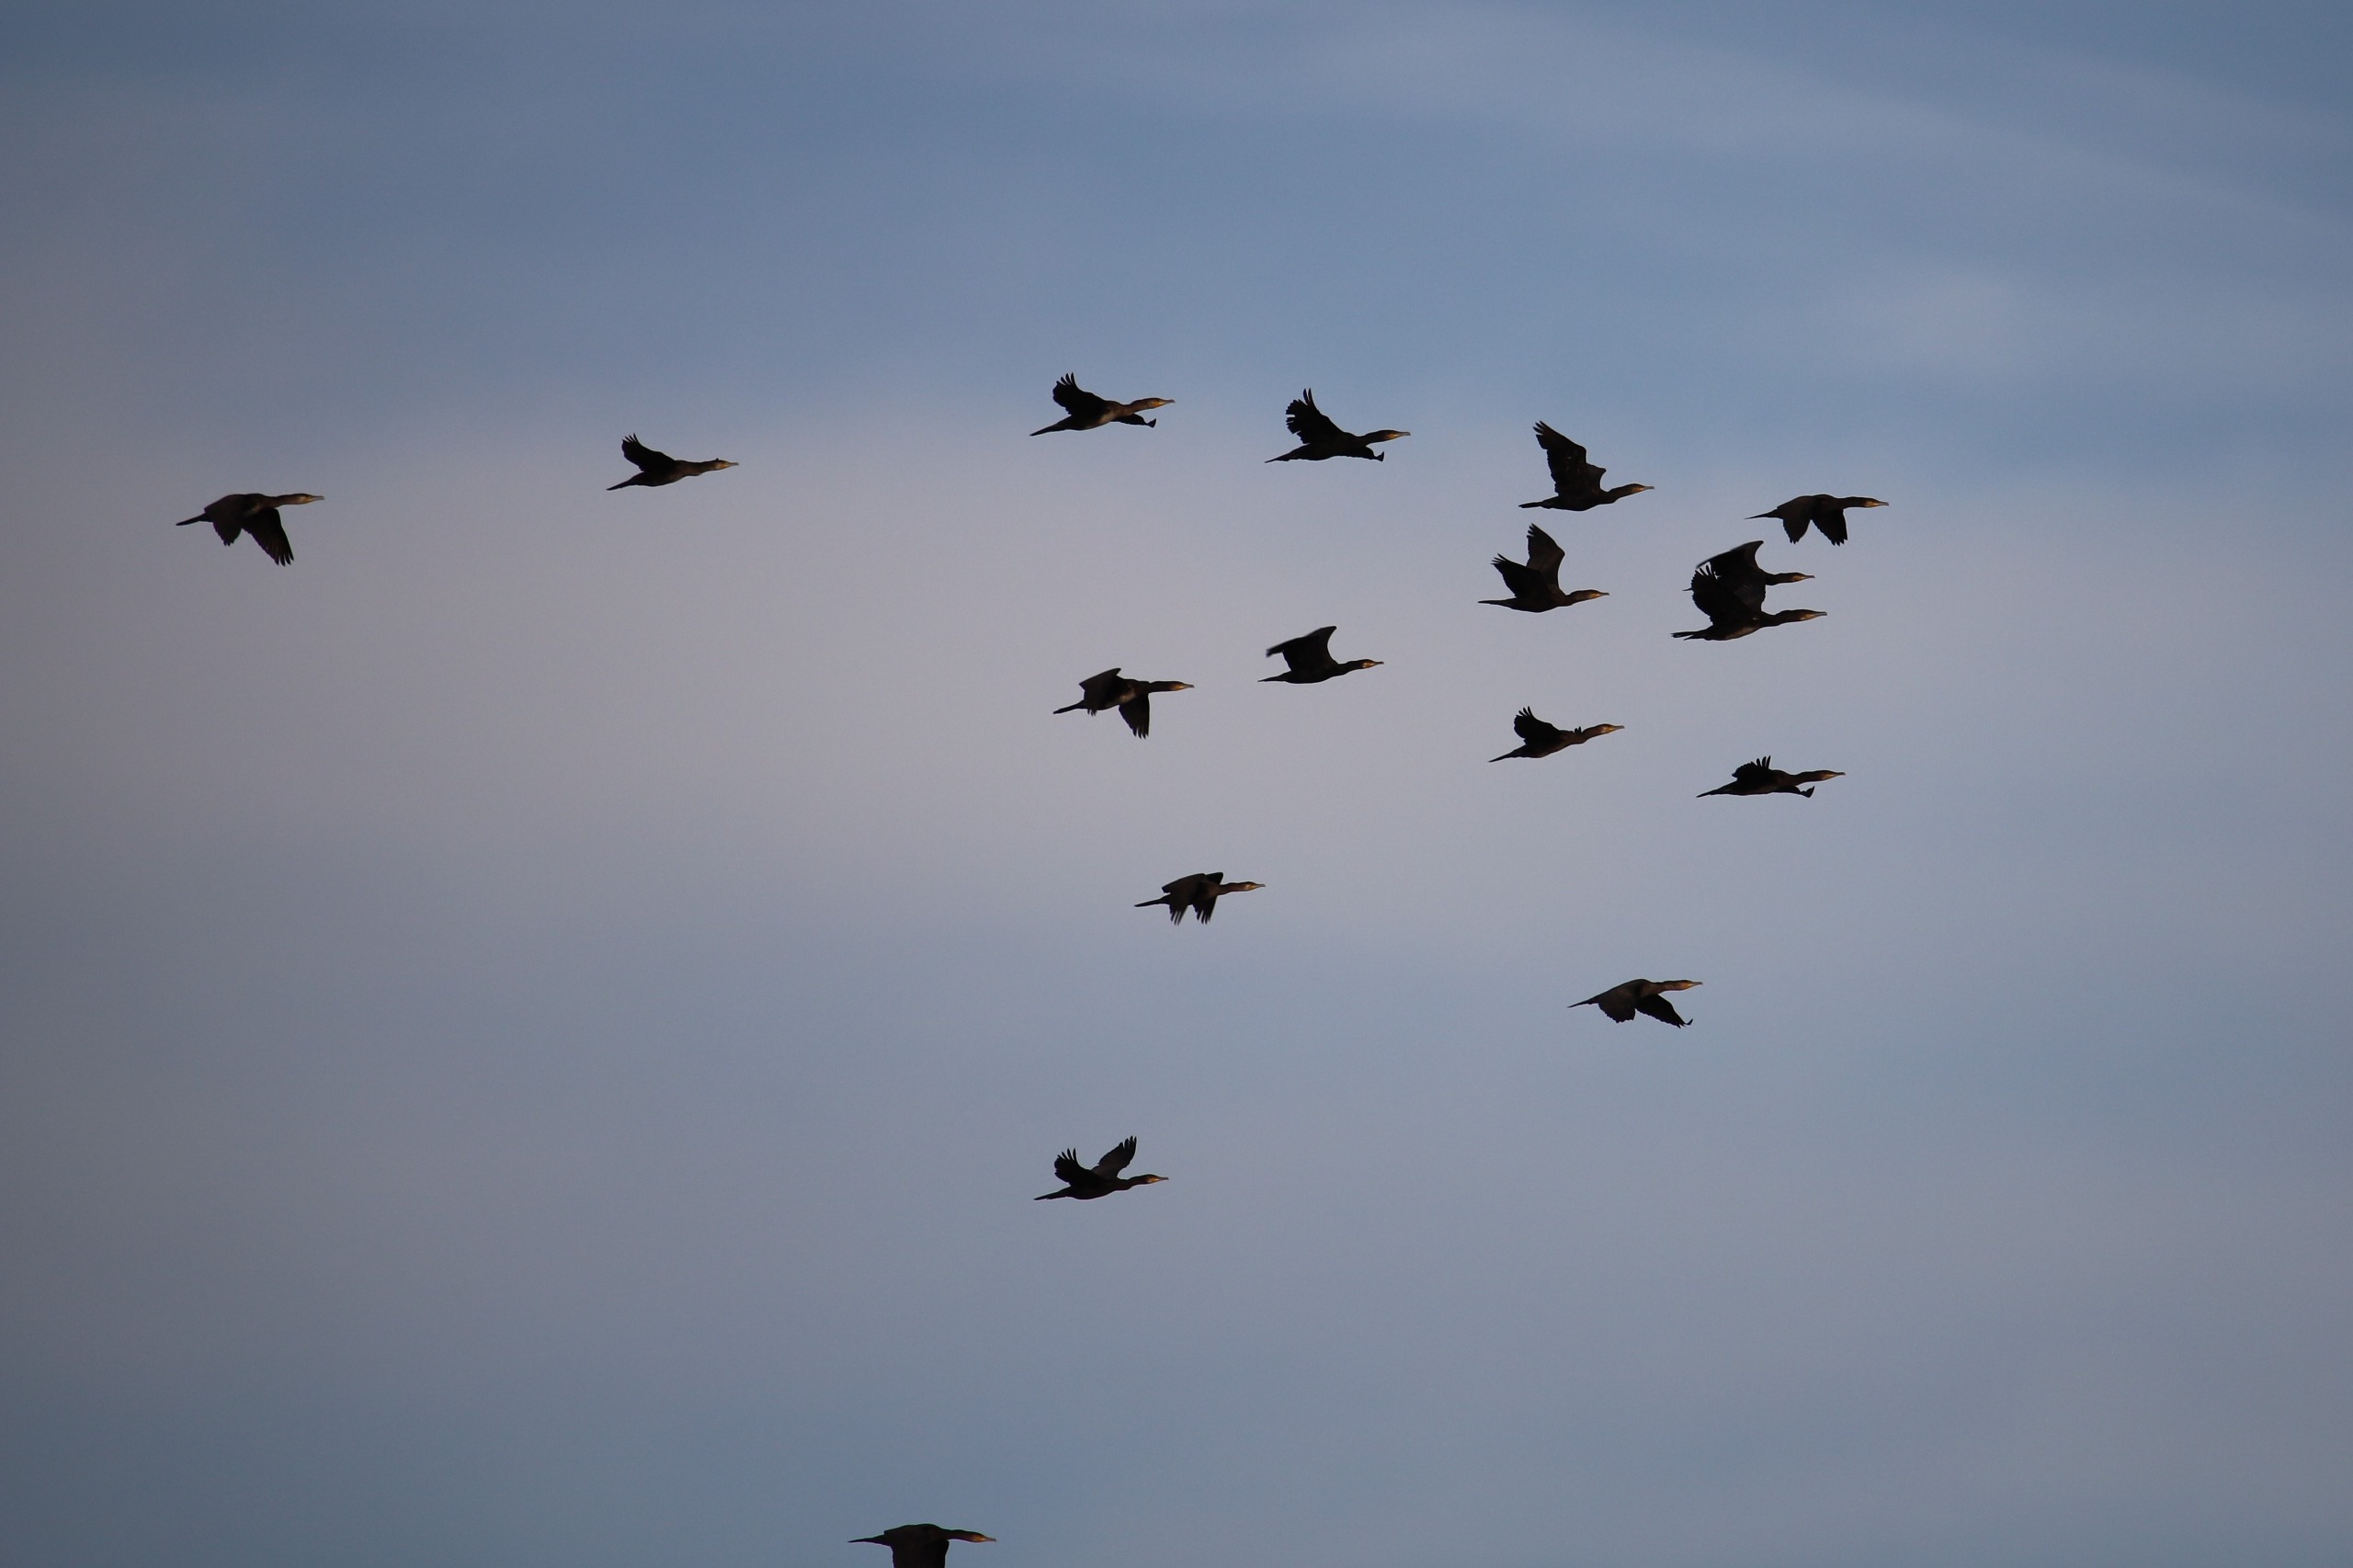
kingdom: Animalia
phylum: Chordata
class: Aves
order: Suliformes
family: Phalacrocoracidae
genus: Phalacrocorax
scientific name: Phalacrocorax carbo
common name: Skarv
